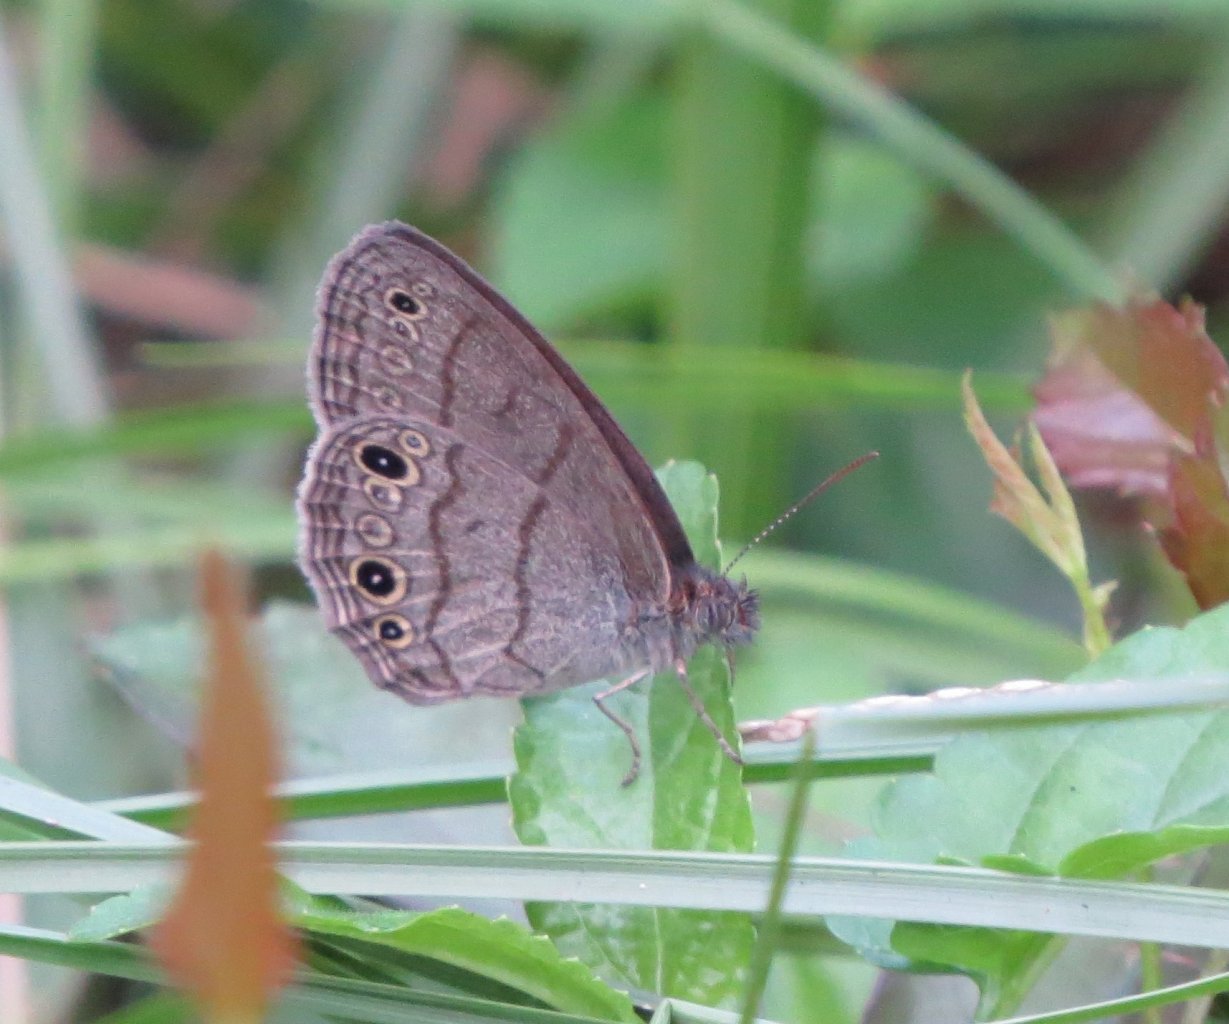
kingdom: Animalia
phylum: Arthropoda
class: Insecta
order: Lepidoptera
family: Nymphalidae
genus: Hermeuptychia
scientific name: Hermeuptychia hermes
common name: Carolina Satyr
